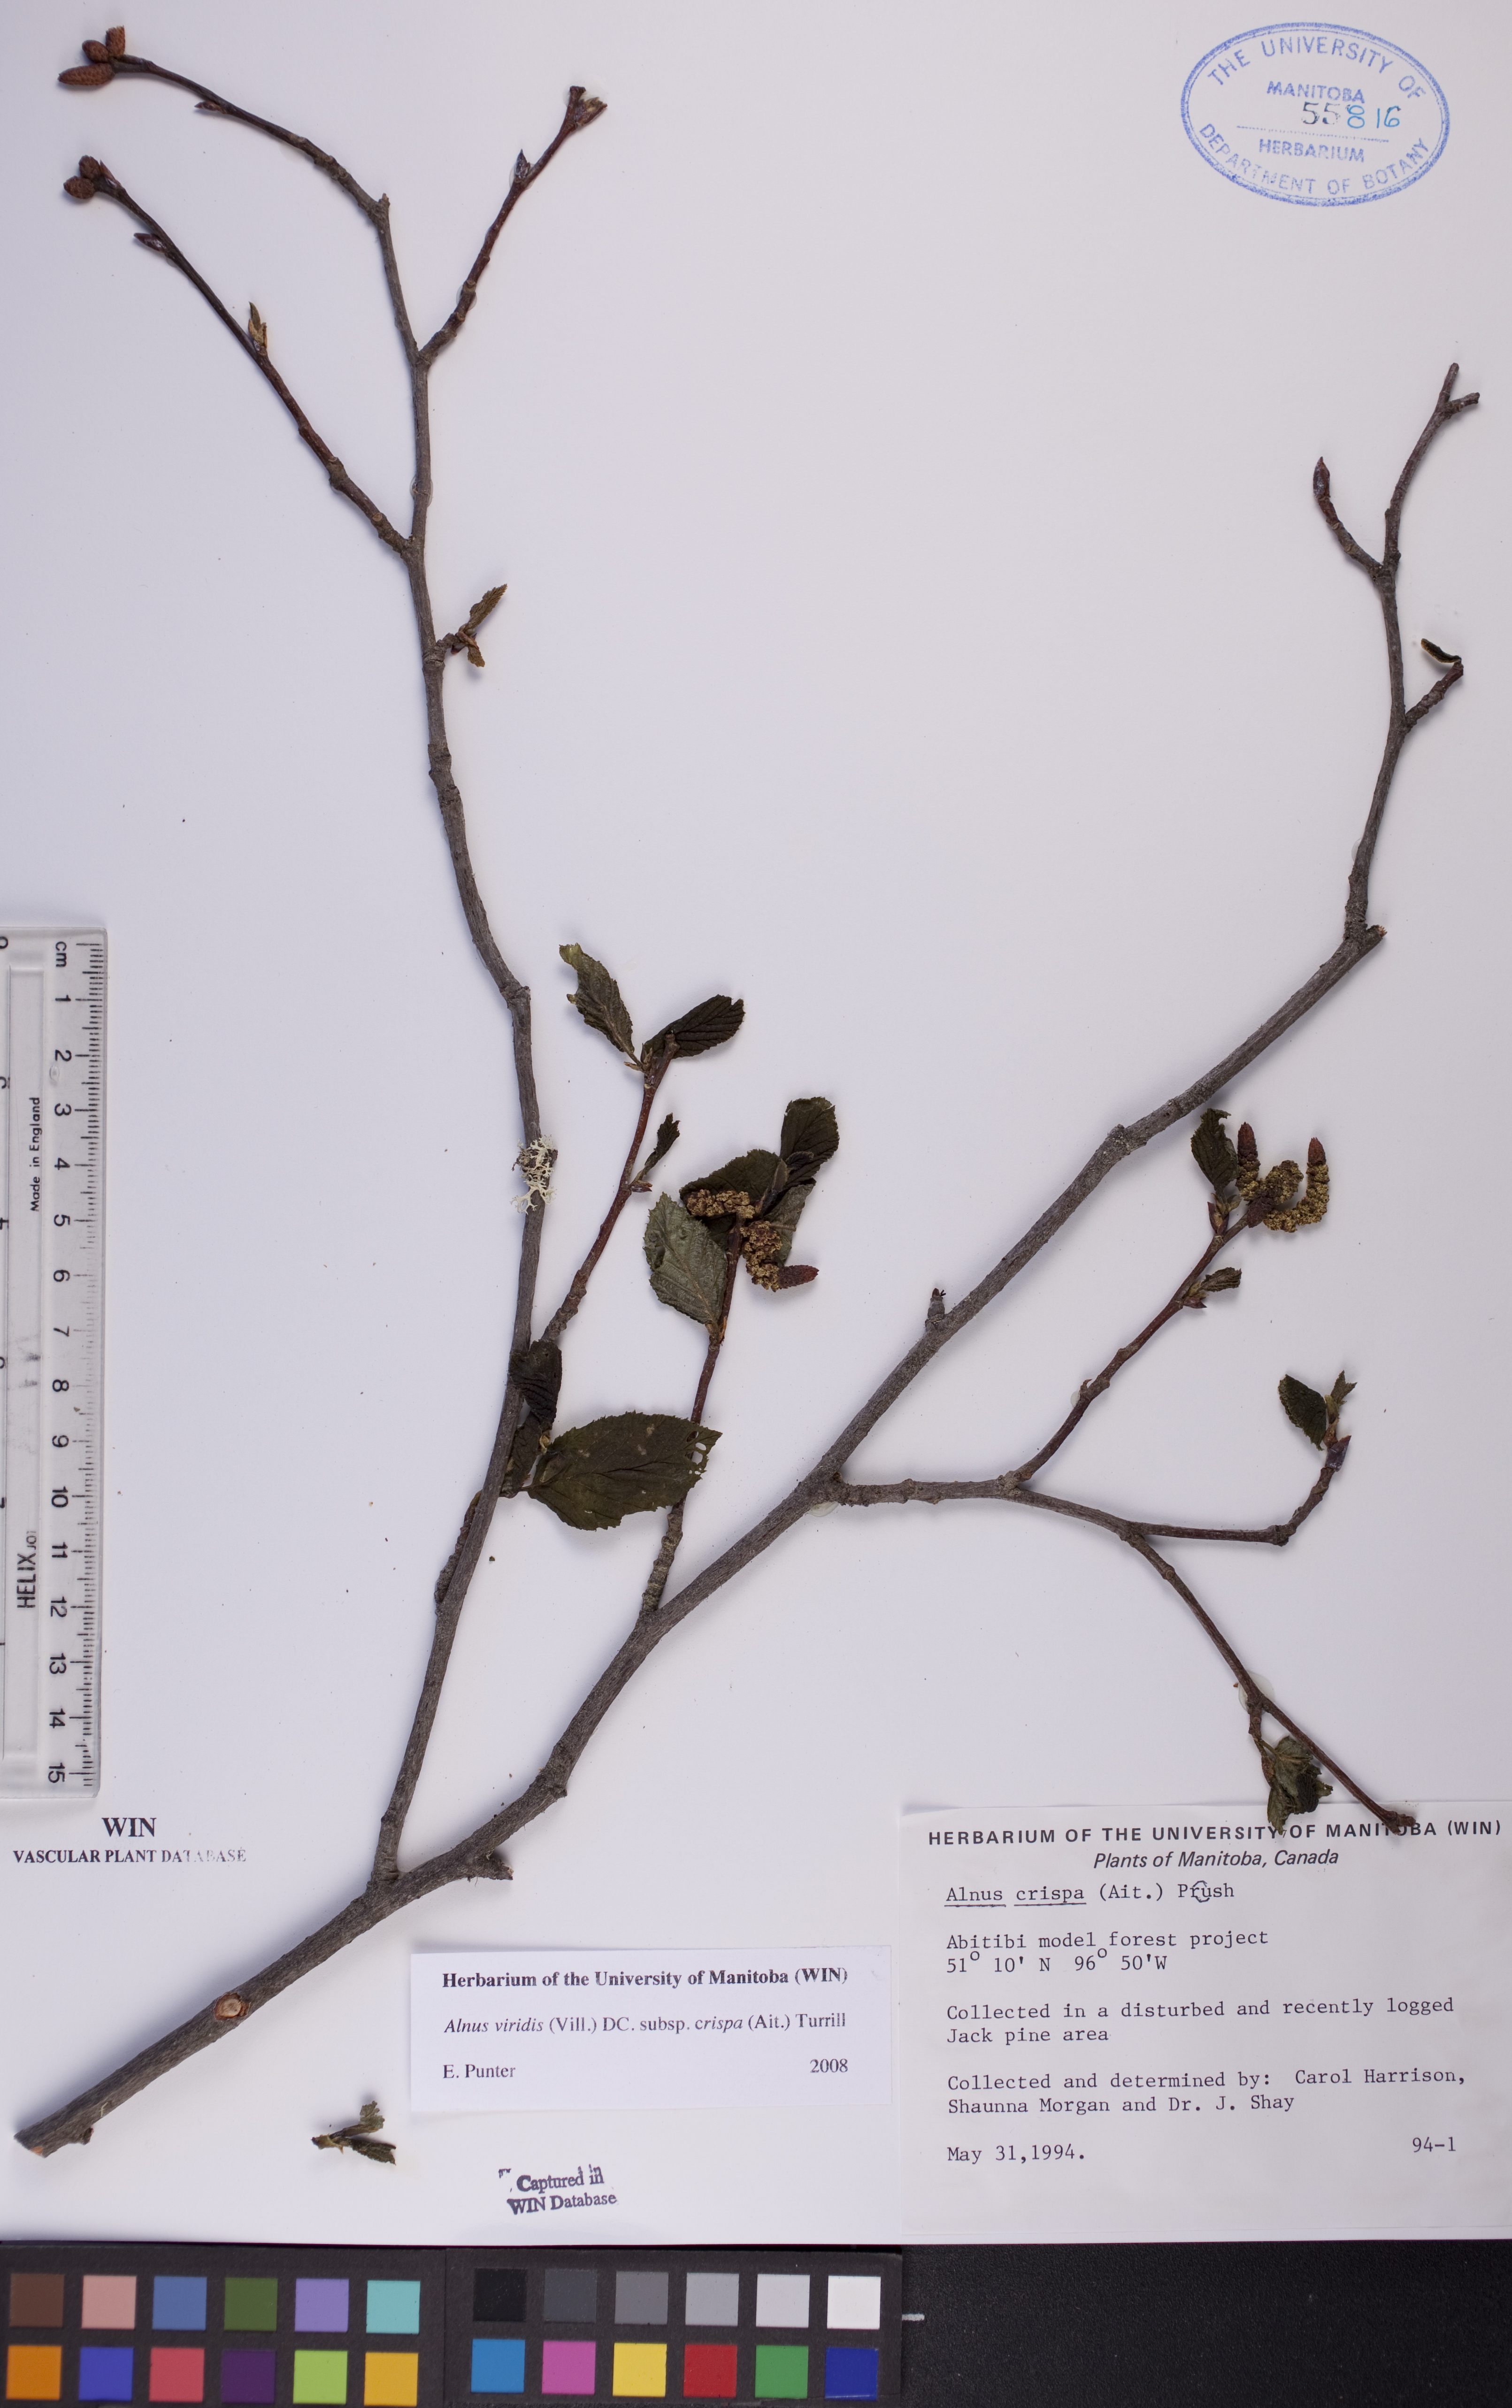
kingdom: Plantae
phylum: Tracheophyta
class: Magnoliopsida
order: Fagales
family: Betulaceae
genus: Alnus
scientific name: Alnus alnobetula
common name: Green alder
